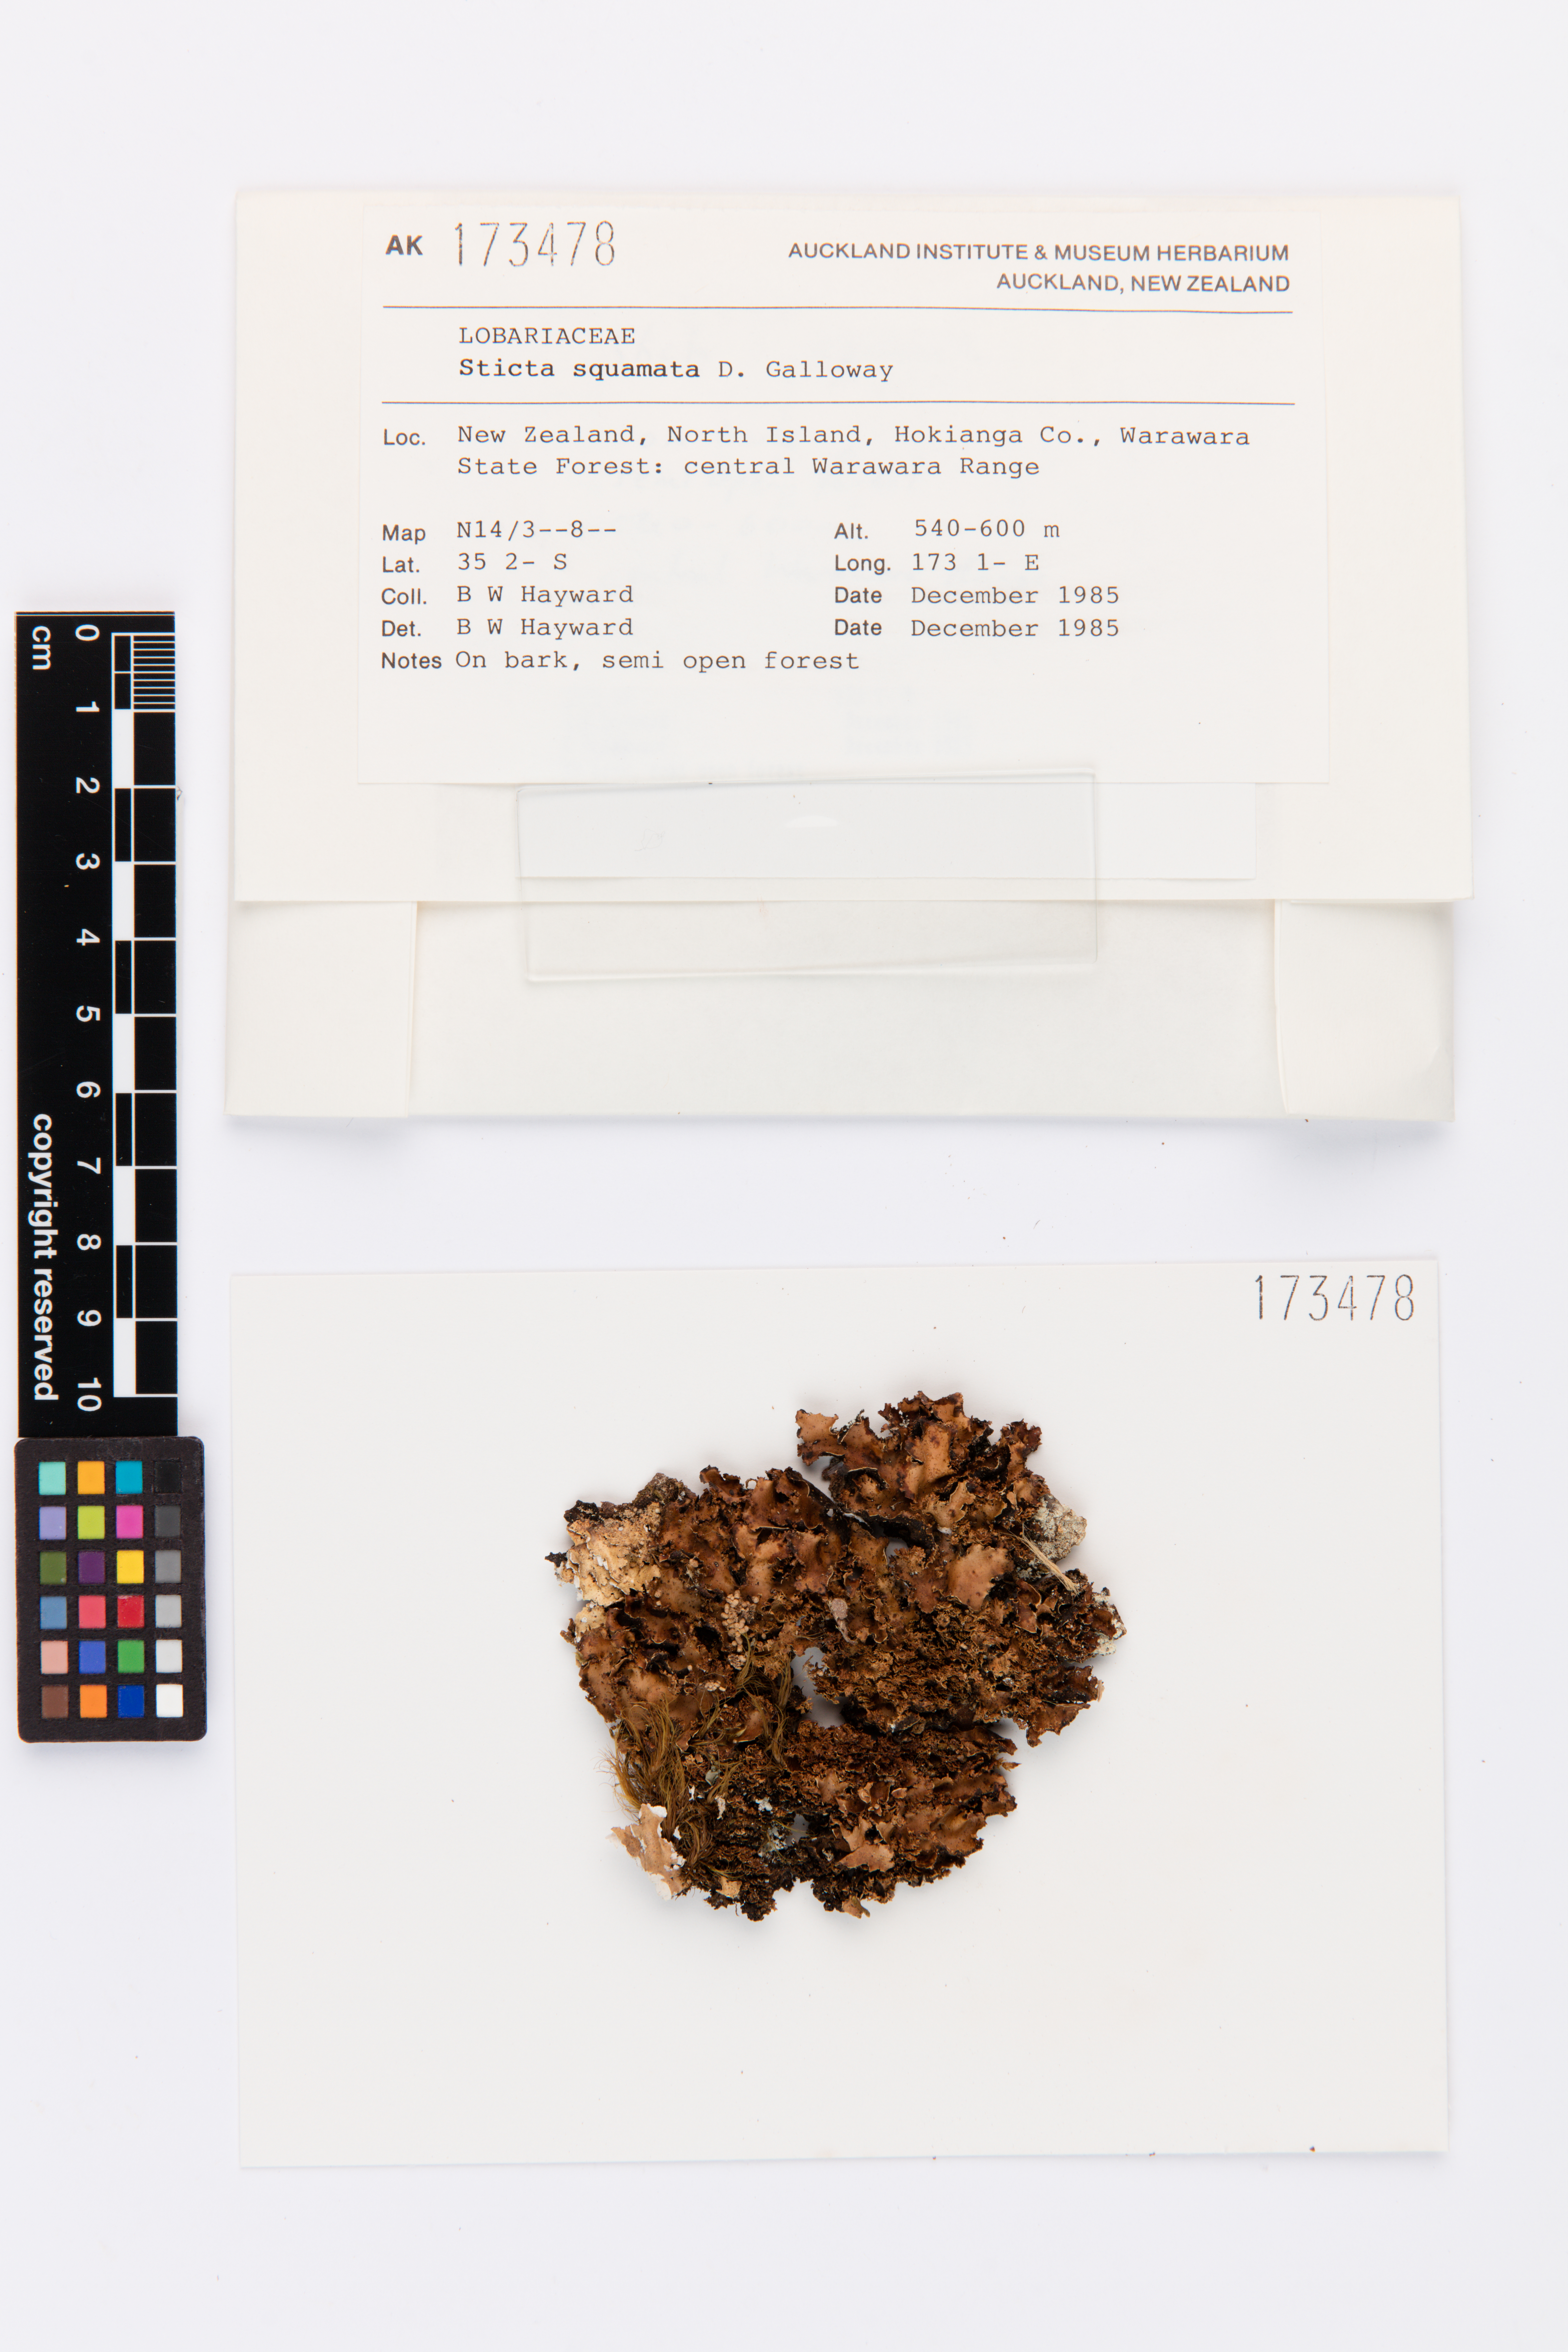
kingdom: Fungi
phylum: Ascomycota
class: Lecanoromycetes
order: Peltigerales
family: Lobariaceae
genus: Sticta
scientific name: Sticta squamata
